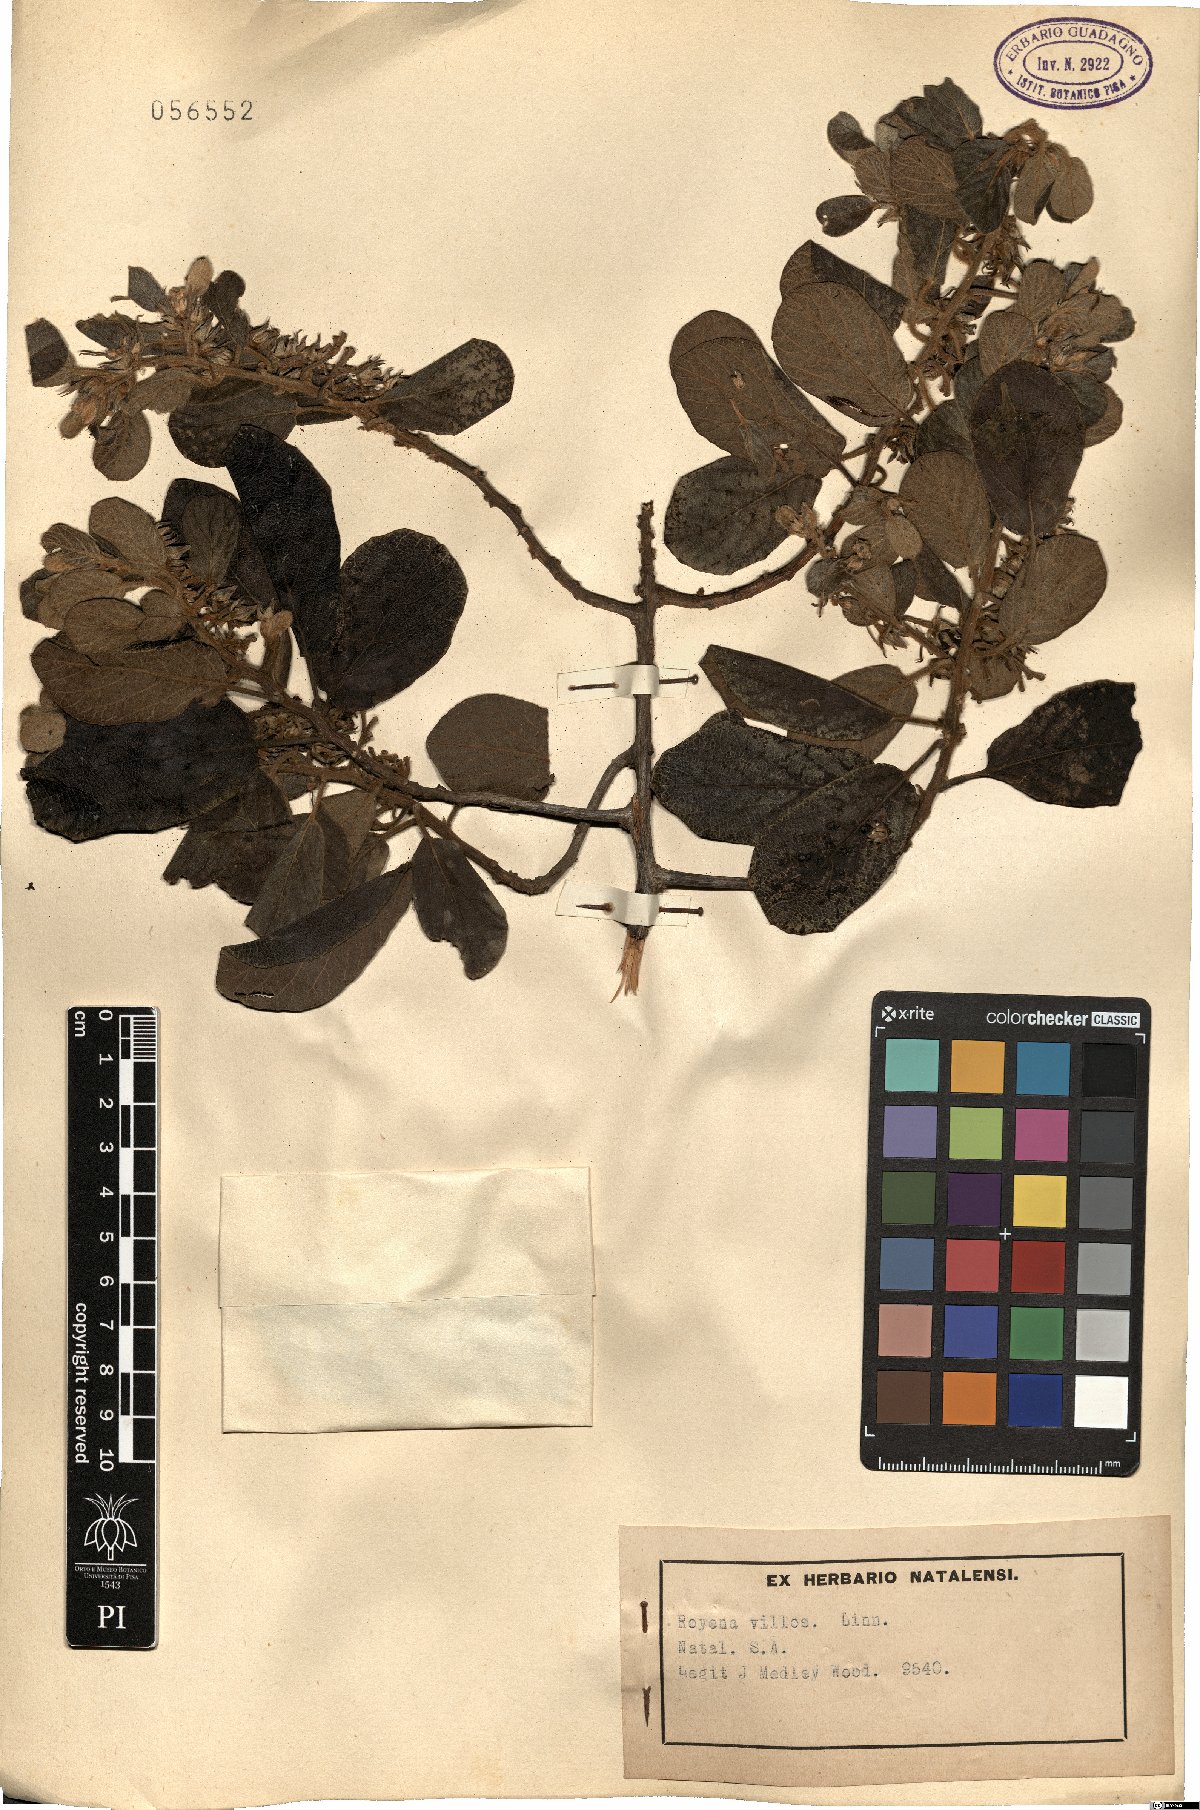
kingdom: Plantae
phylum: Tracheophyta
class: Magnoliopsida
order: Ericales
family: Ebenaceae
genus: Diospyros
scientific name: Diospyros villosa
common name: Hairy star-apple
